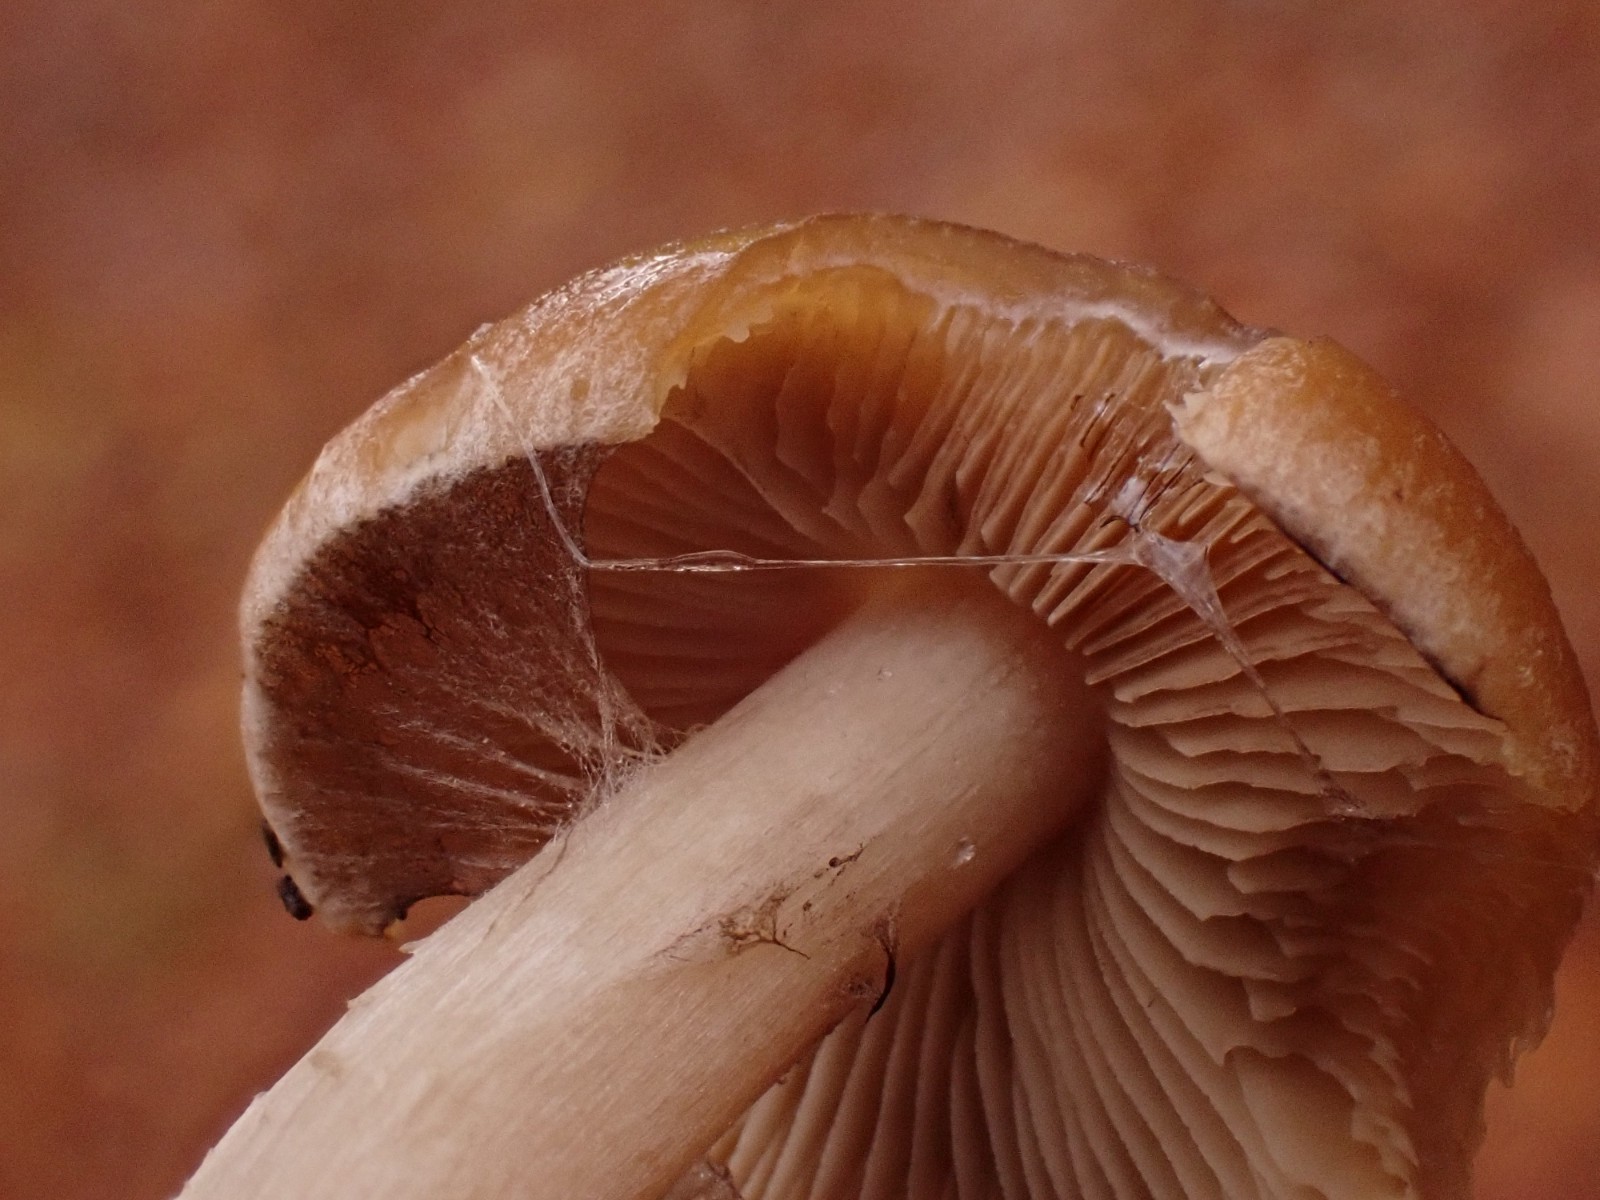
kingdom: Fungi
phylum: Basidiomycota
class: Agaricomycetes
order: Agaricales
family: Psathyrellaceae
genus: Psathyrella
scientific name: Psathyrella piluliformis
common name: lysstokket mørkhat
